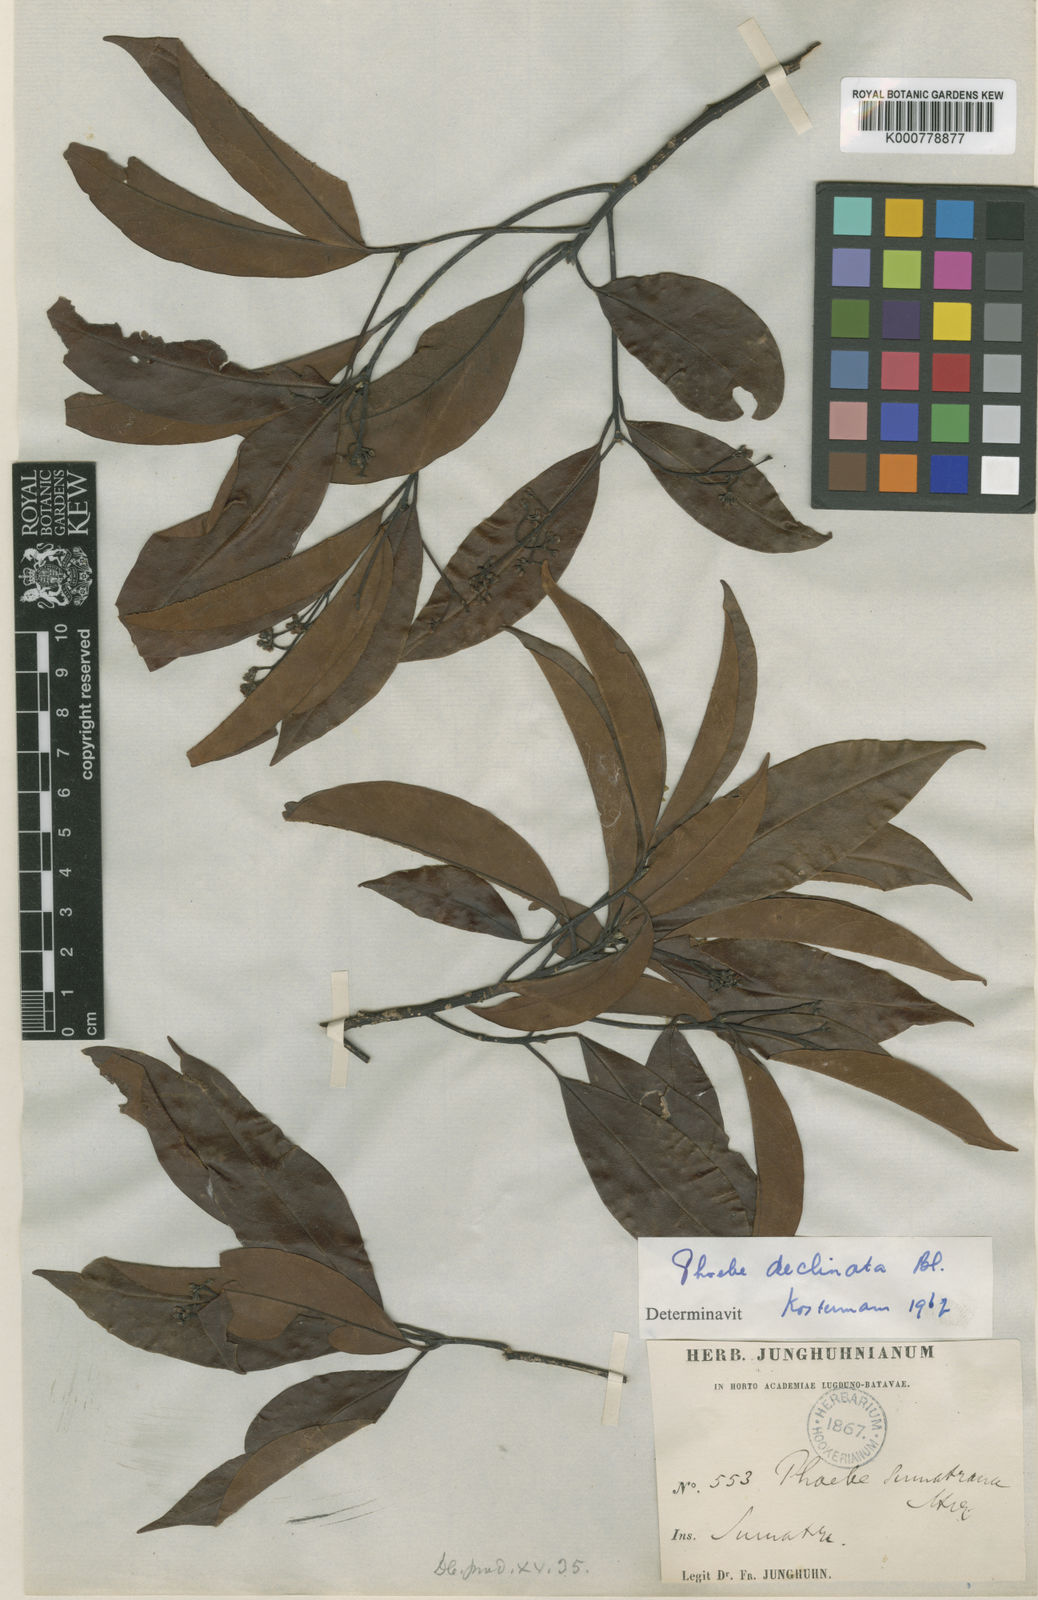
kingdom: Plantae
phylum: Tracheophyta
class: Magnoliopsida
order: Laurales
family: Lauraceae
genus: Machilus
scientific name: Machilus declinata
